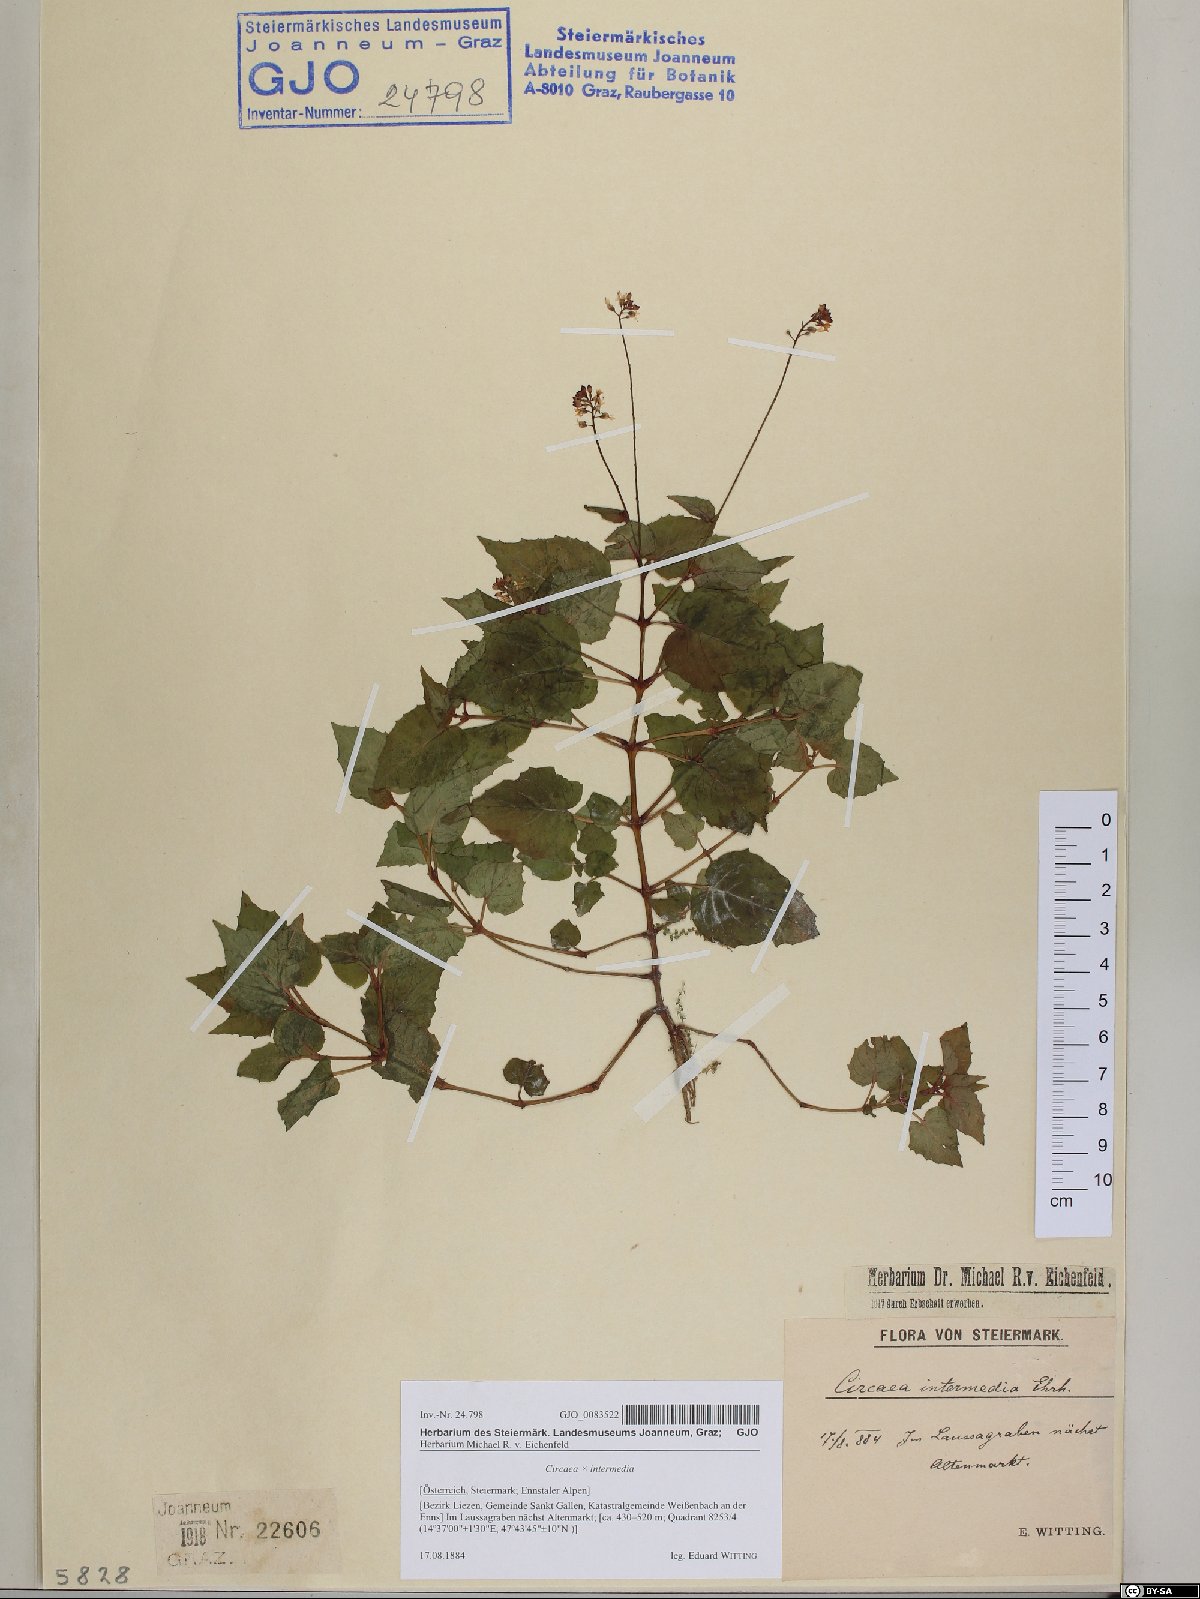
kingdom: Plantae
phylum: Tracheophyta
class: Magnoliopsida
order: Myrtales
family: Onagraceae
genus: Circaea
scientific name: Circaea intermedia
